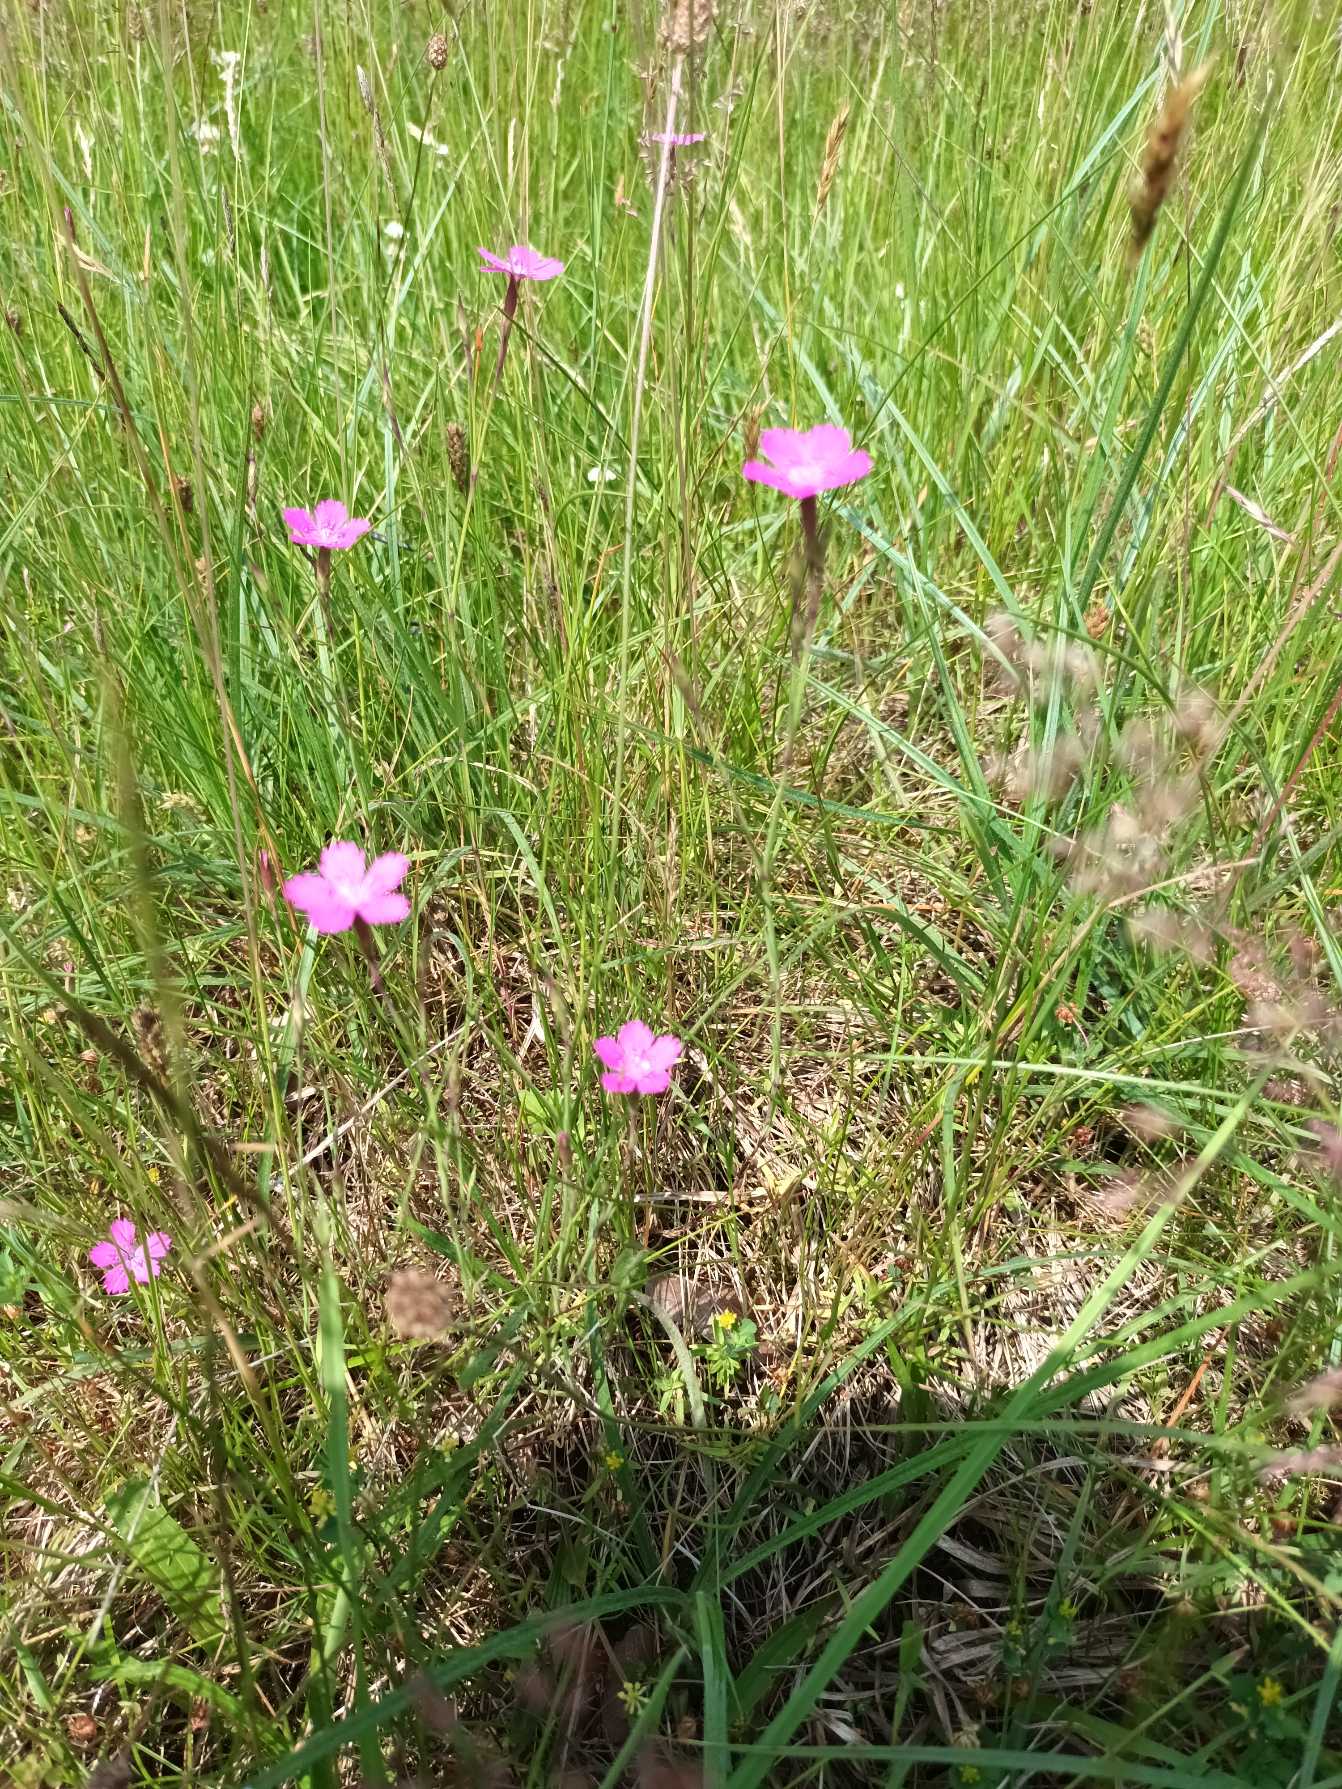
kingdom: Plantae
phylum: Tracheophyta
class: Magnoliopsida
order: Caryophyllales
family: Caryophyllaceae
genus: Dianthus
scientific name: Dianthus deltoides
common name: Bakke-nellike
